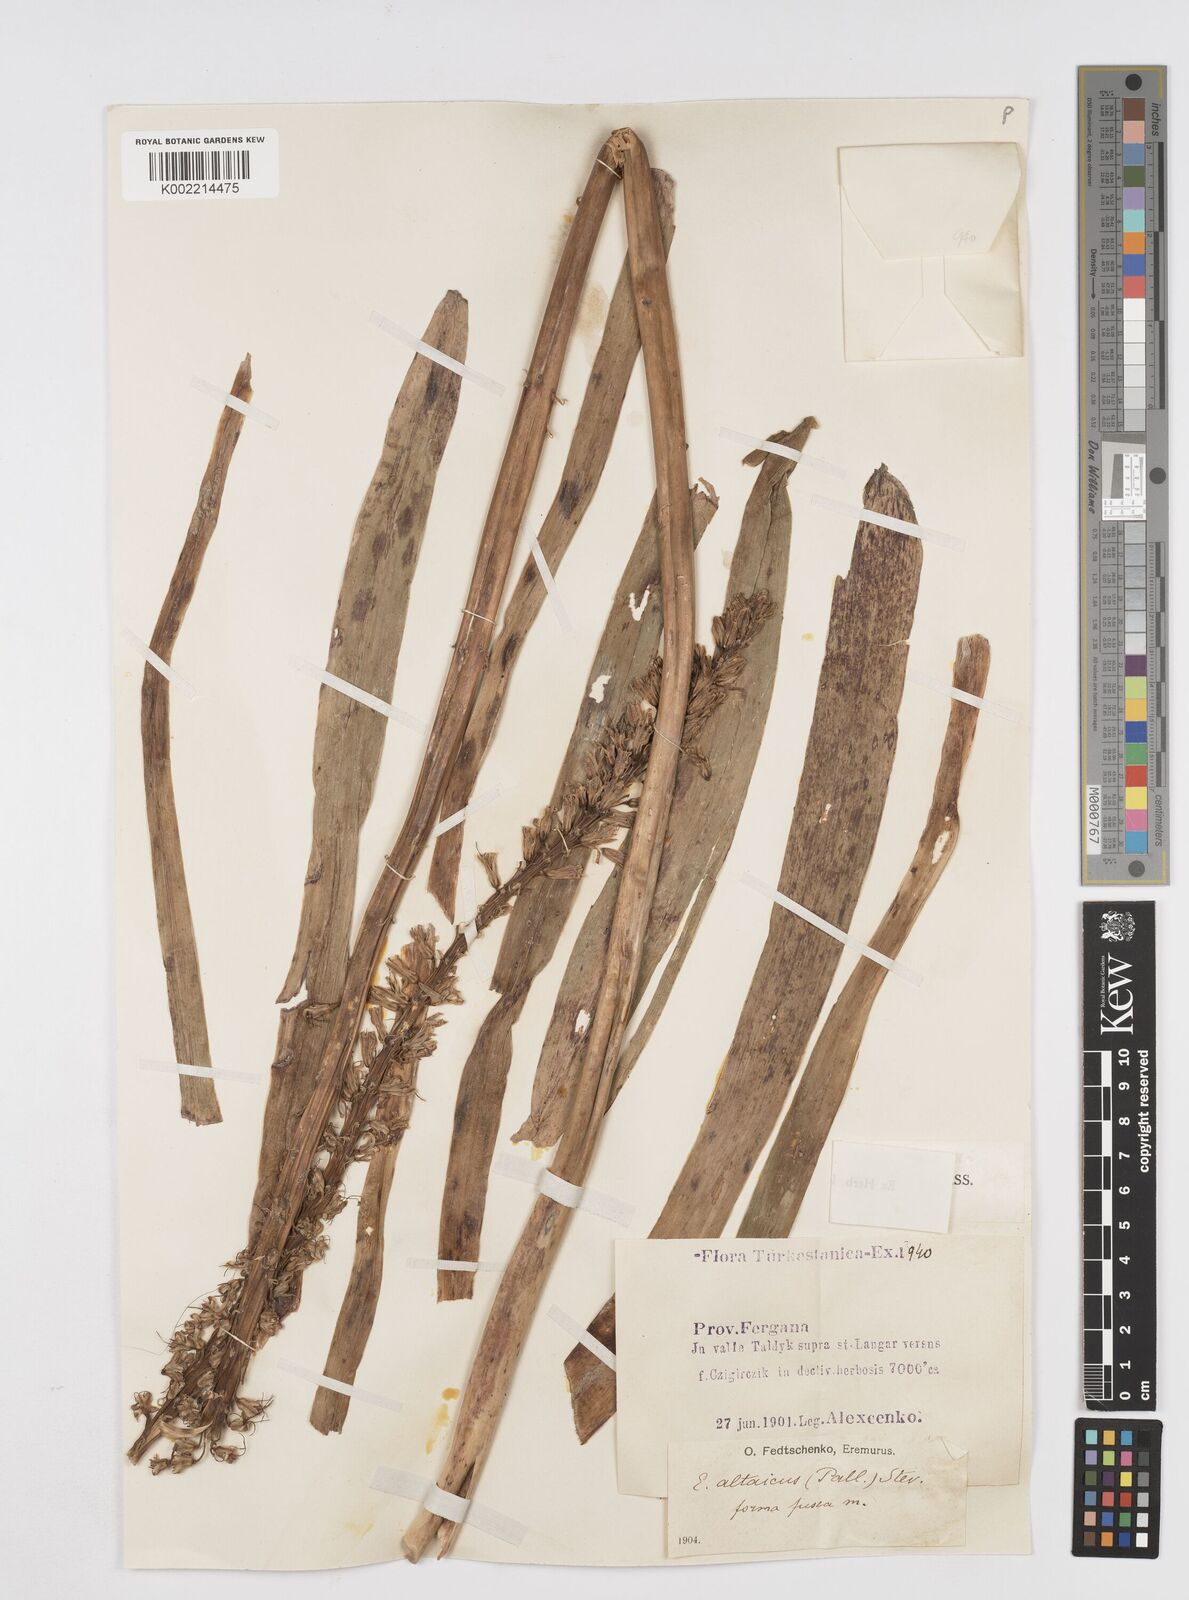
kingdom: Plantae
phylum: Tracheophyta
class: Liliopsida
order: Asparagales
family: Asphodelaceae
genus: Eremurus
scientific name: Eremurus altaicus
